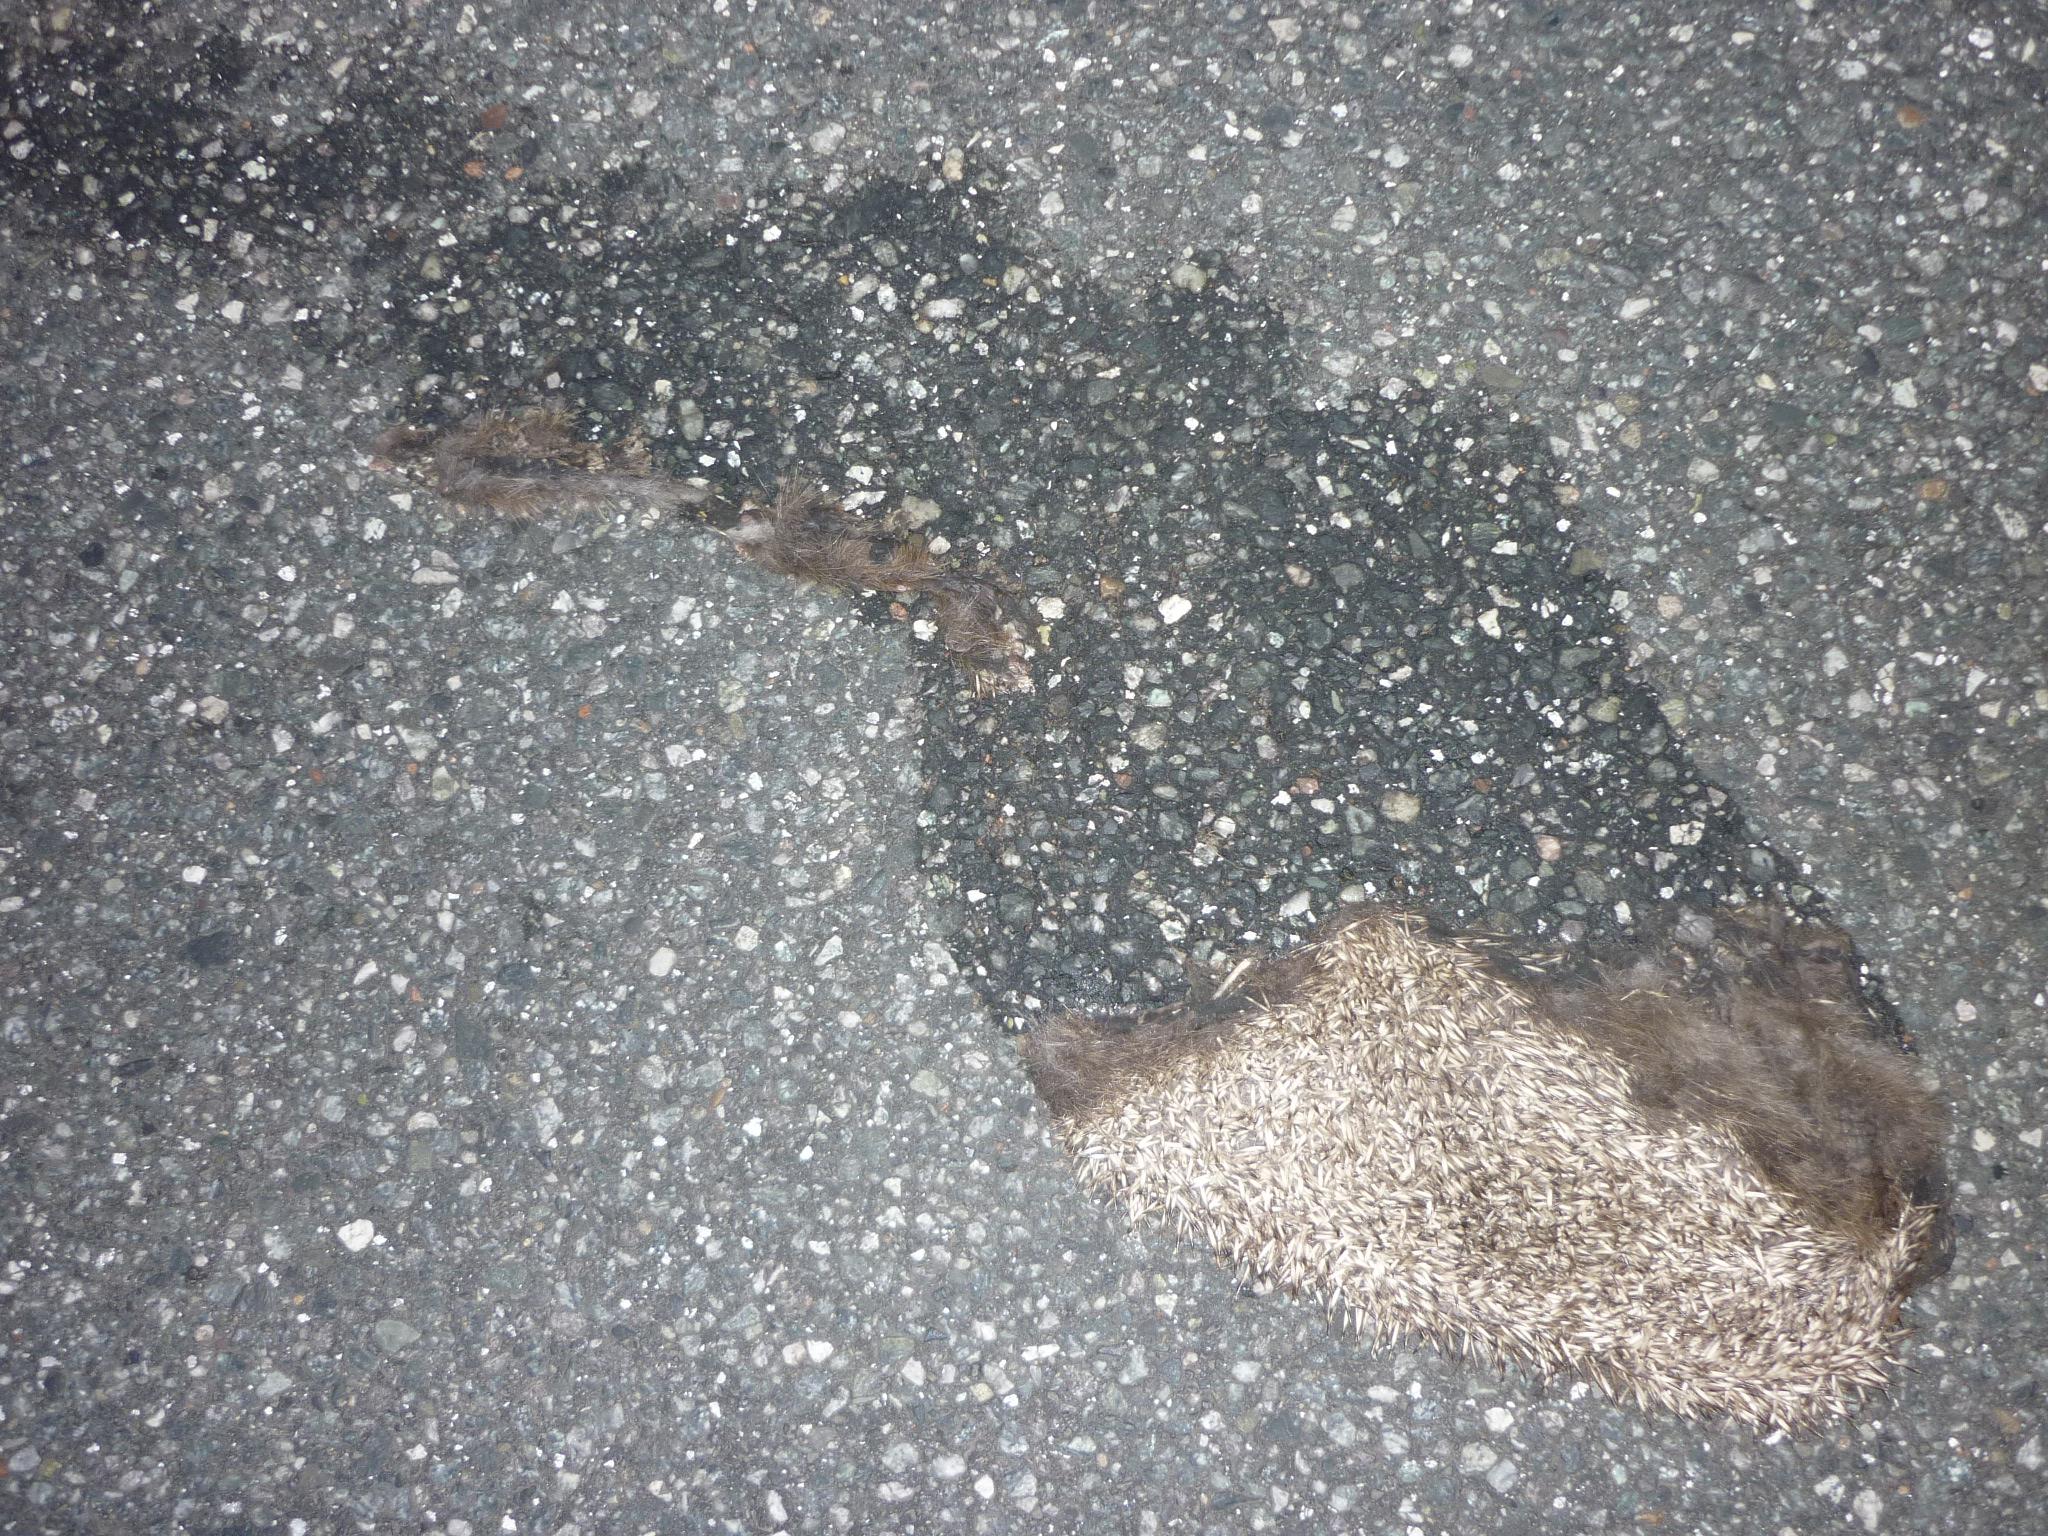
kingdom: Animalia
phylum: Chordata
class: Mammalia
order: Erinaceomorpha
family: Erinaceidae
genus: Erinaceus
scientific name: Erinaceus
